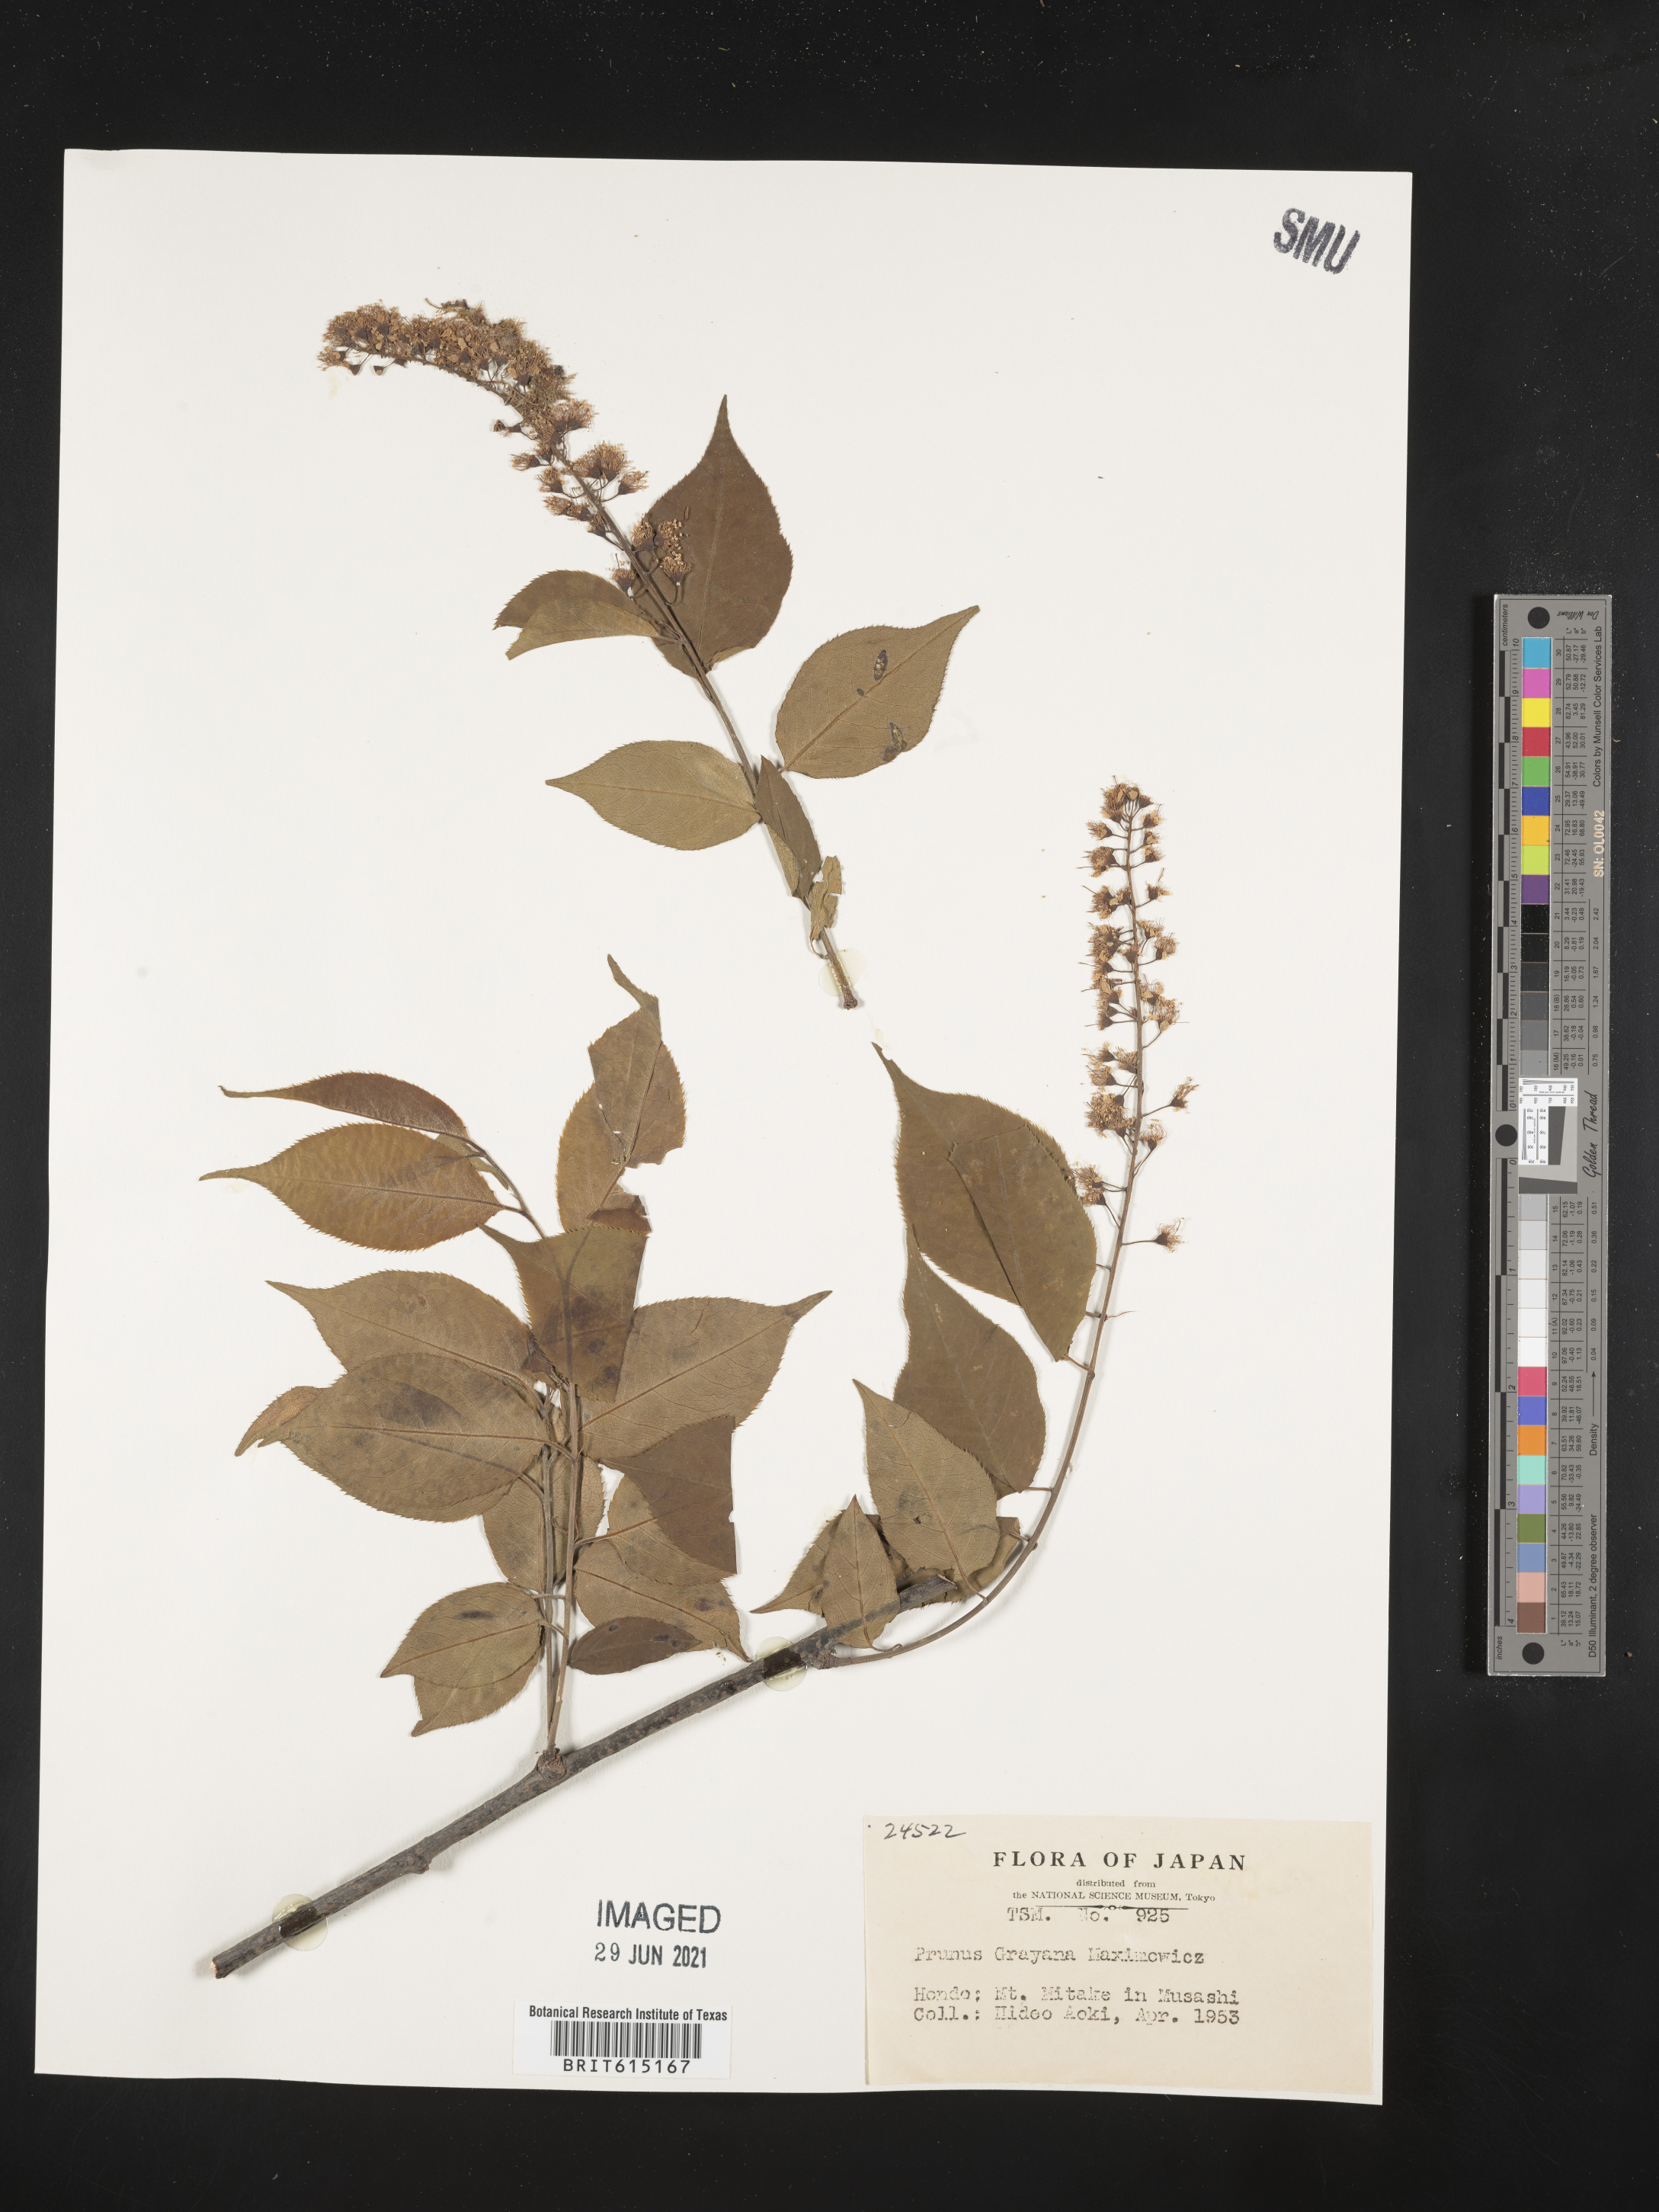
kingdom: Plantae
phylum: Tracheophyta
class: Magnoliopsida
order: Rosales
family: Rosaceae
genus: Prunus
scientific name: Prunus grayana
